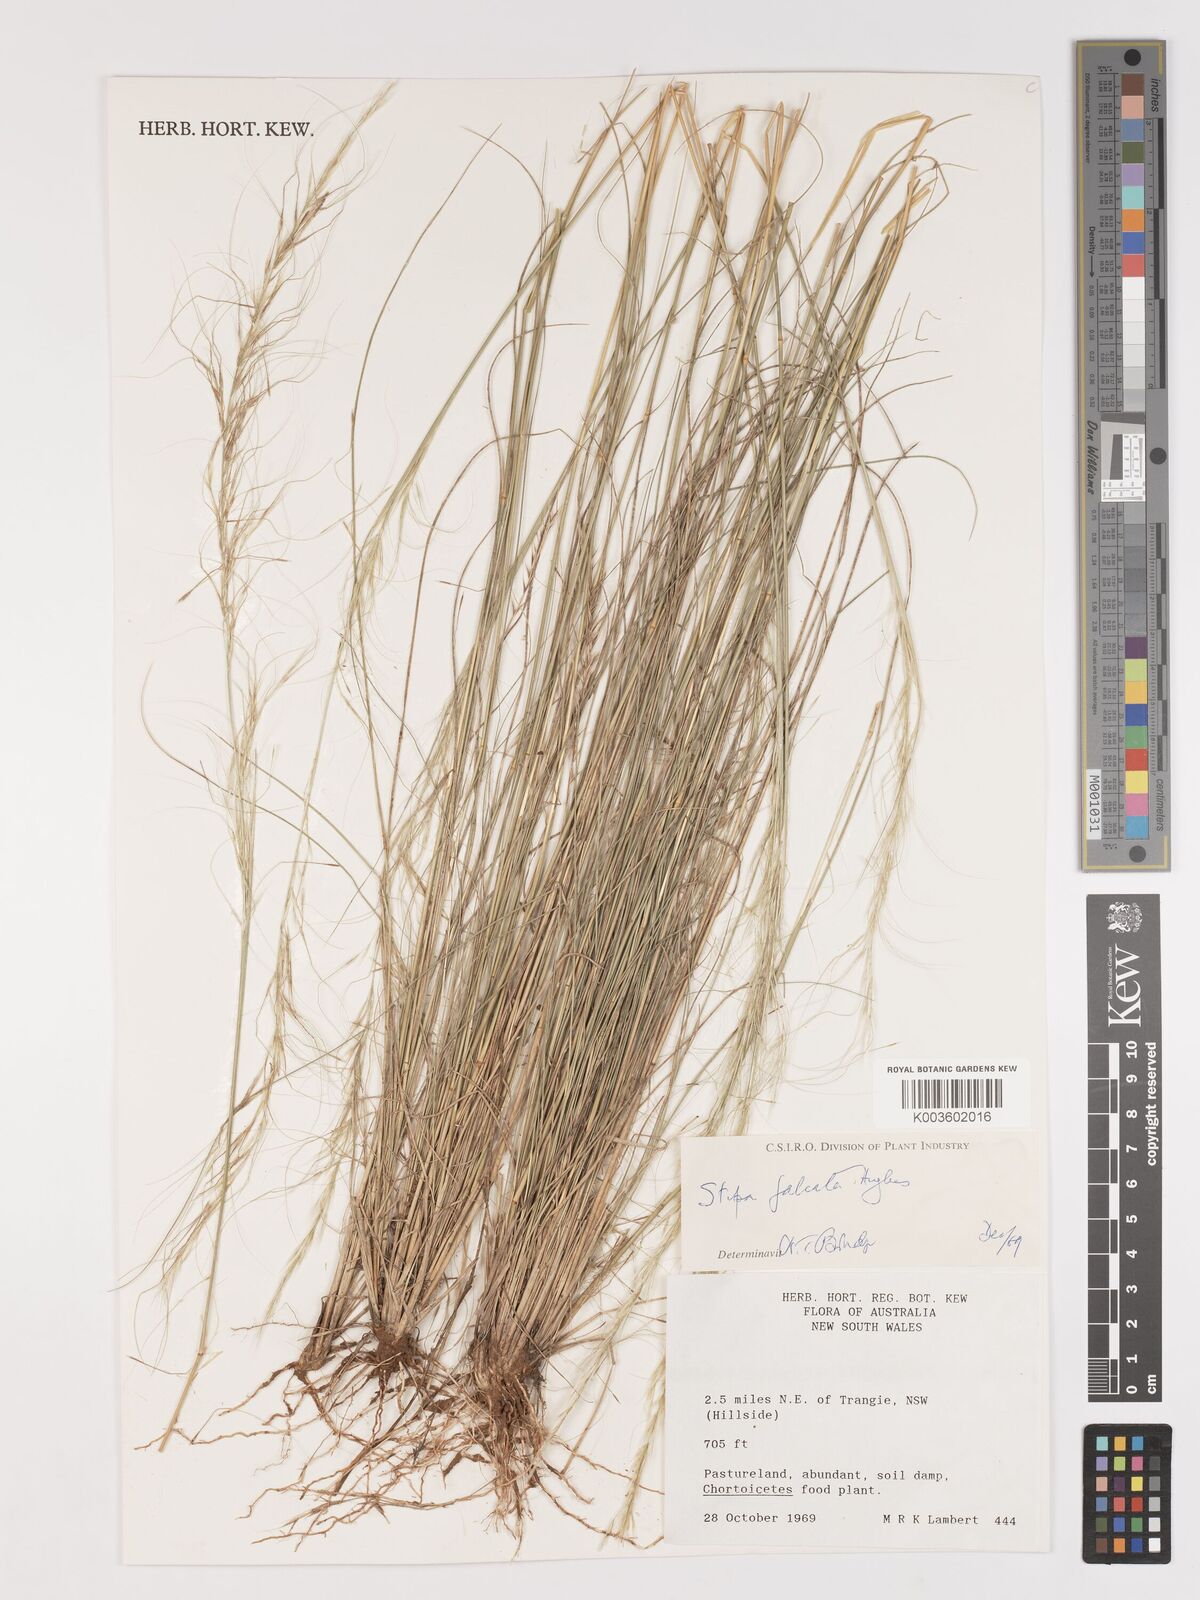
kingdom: Plantae
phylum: Tracheophyta
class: Liliopsida
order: Poales
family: Poaceae
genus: Austrostipa
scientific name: Austrostipa scabra
